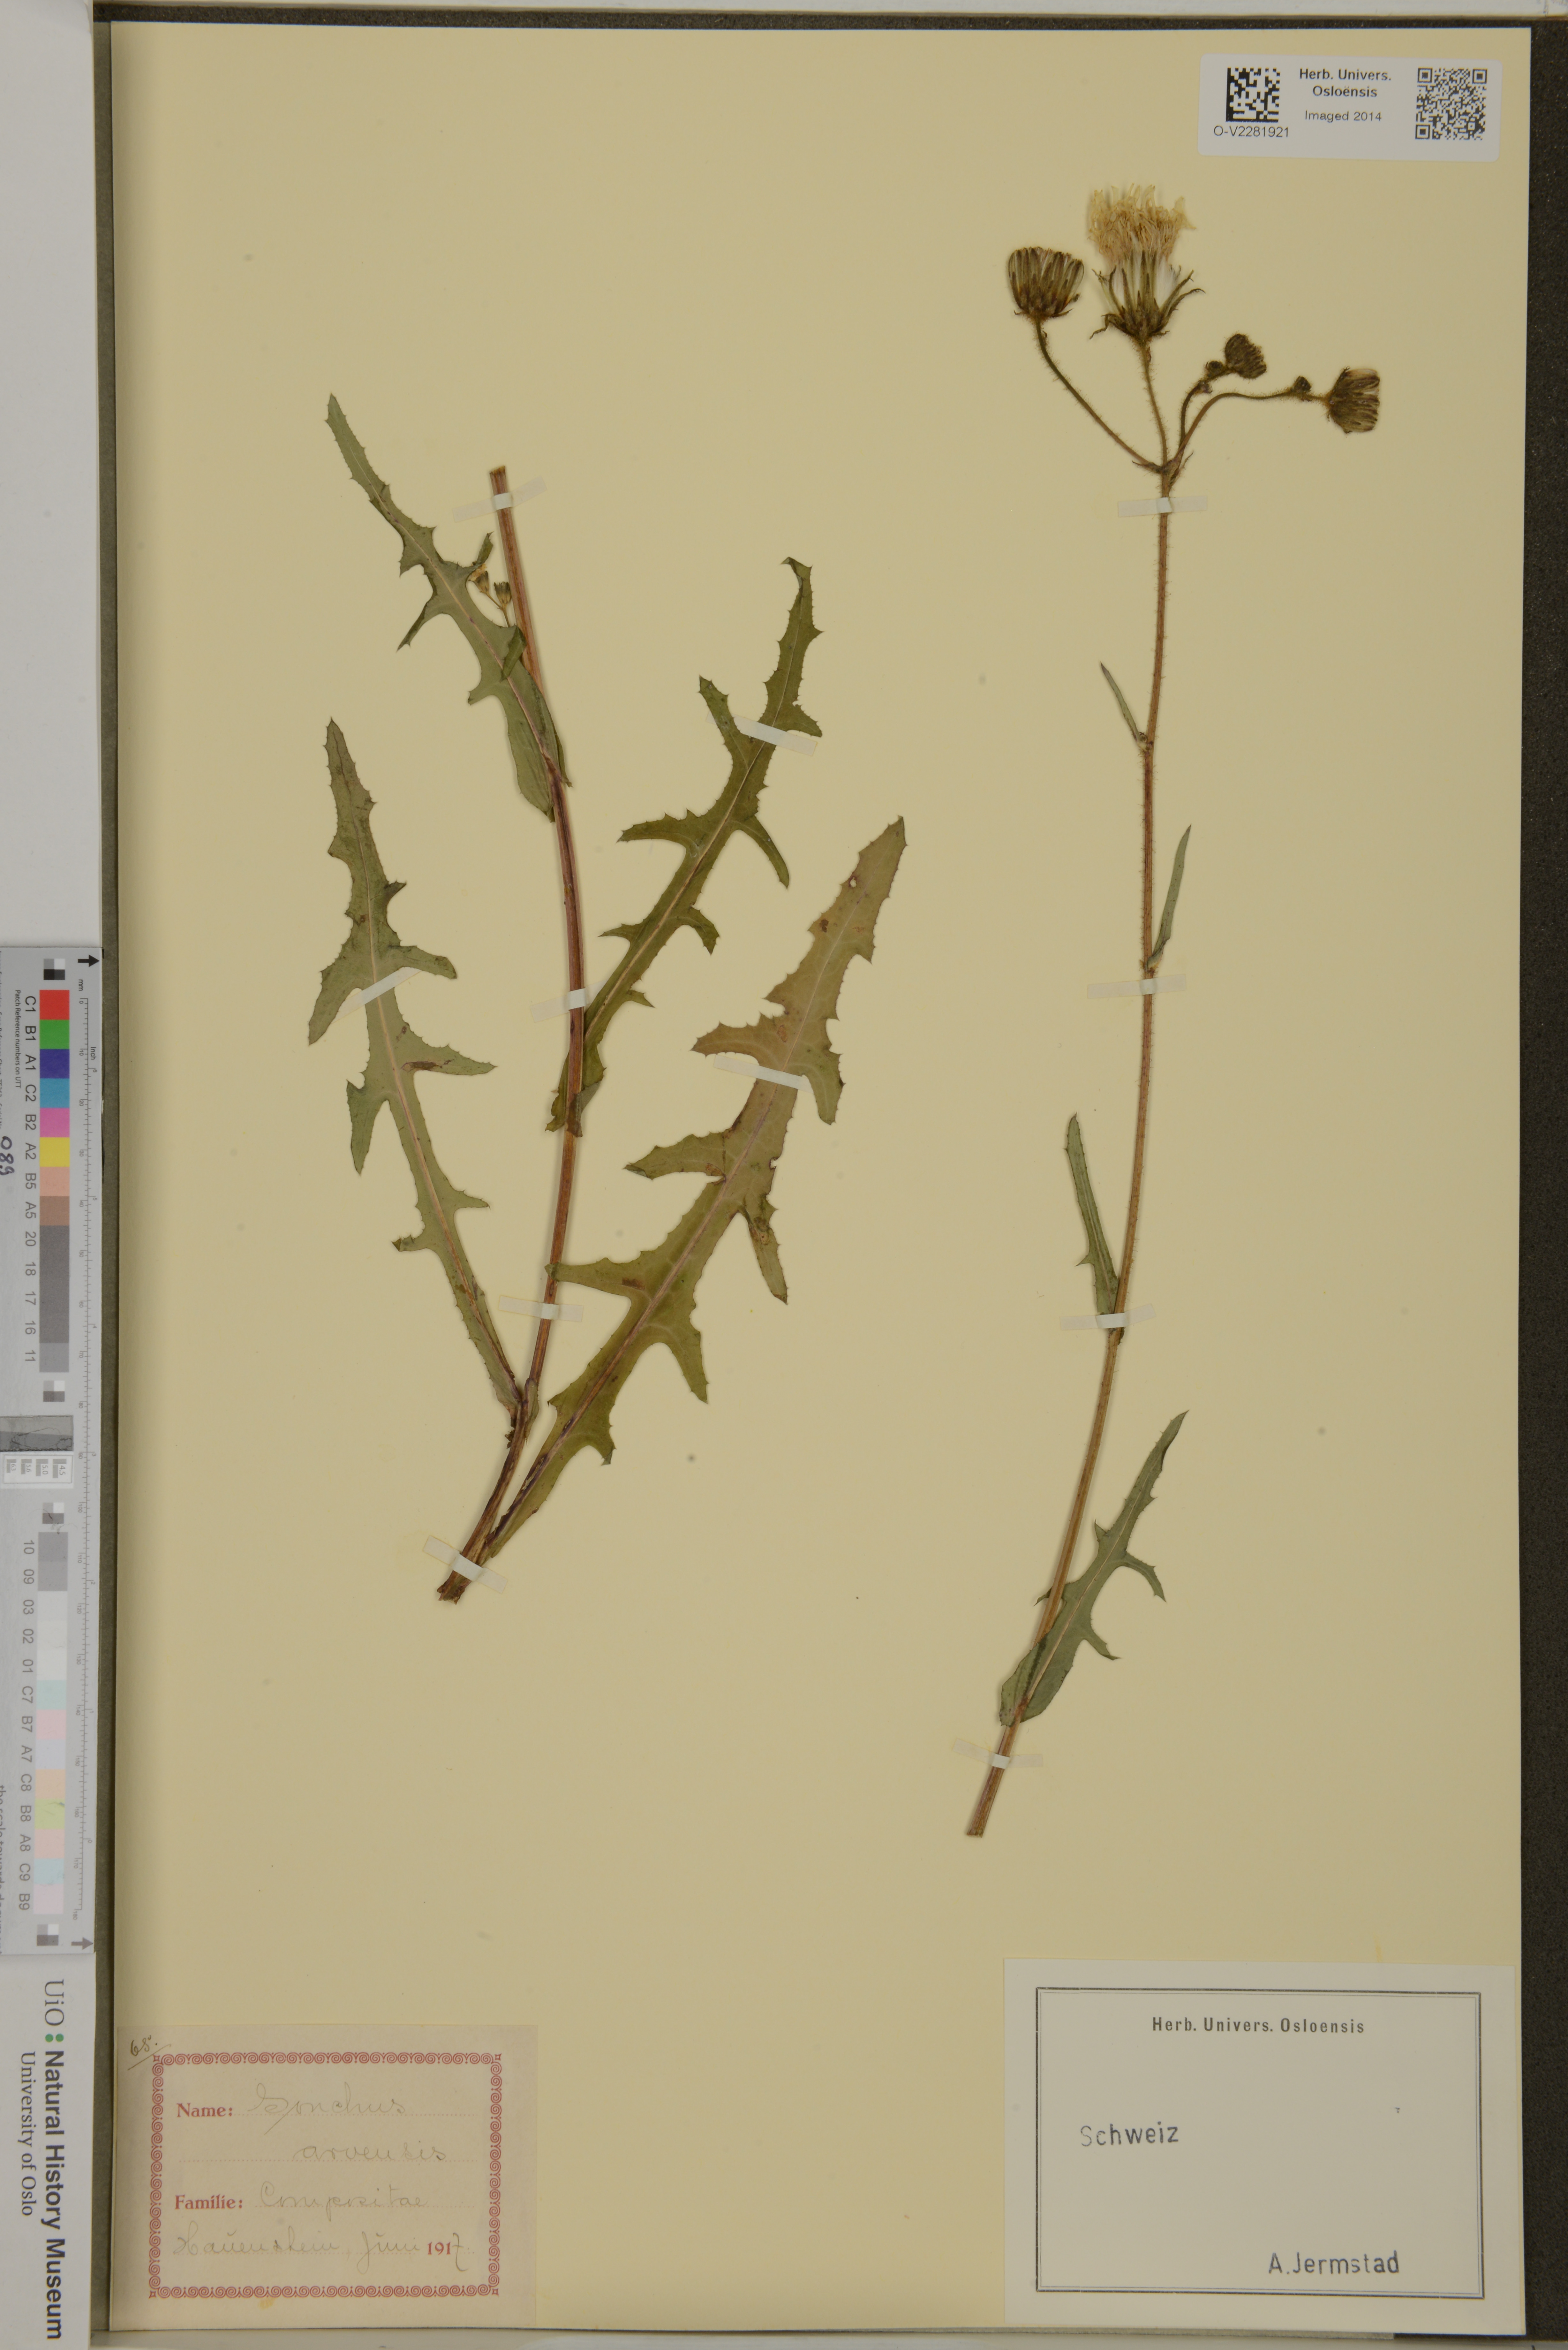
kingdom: Plantae
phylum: Tracheophyta
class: Magnoliopsida
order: Asterales
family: Asteraceae
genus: Sonchus
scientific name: Sonchus arvensis
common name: Perennial sow-thistle
